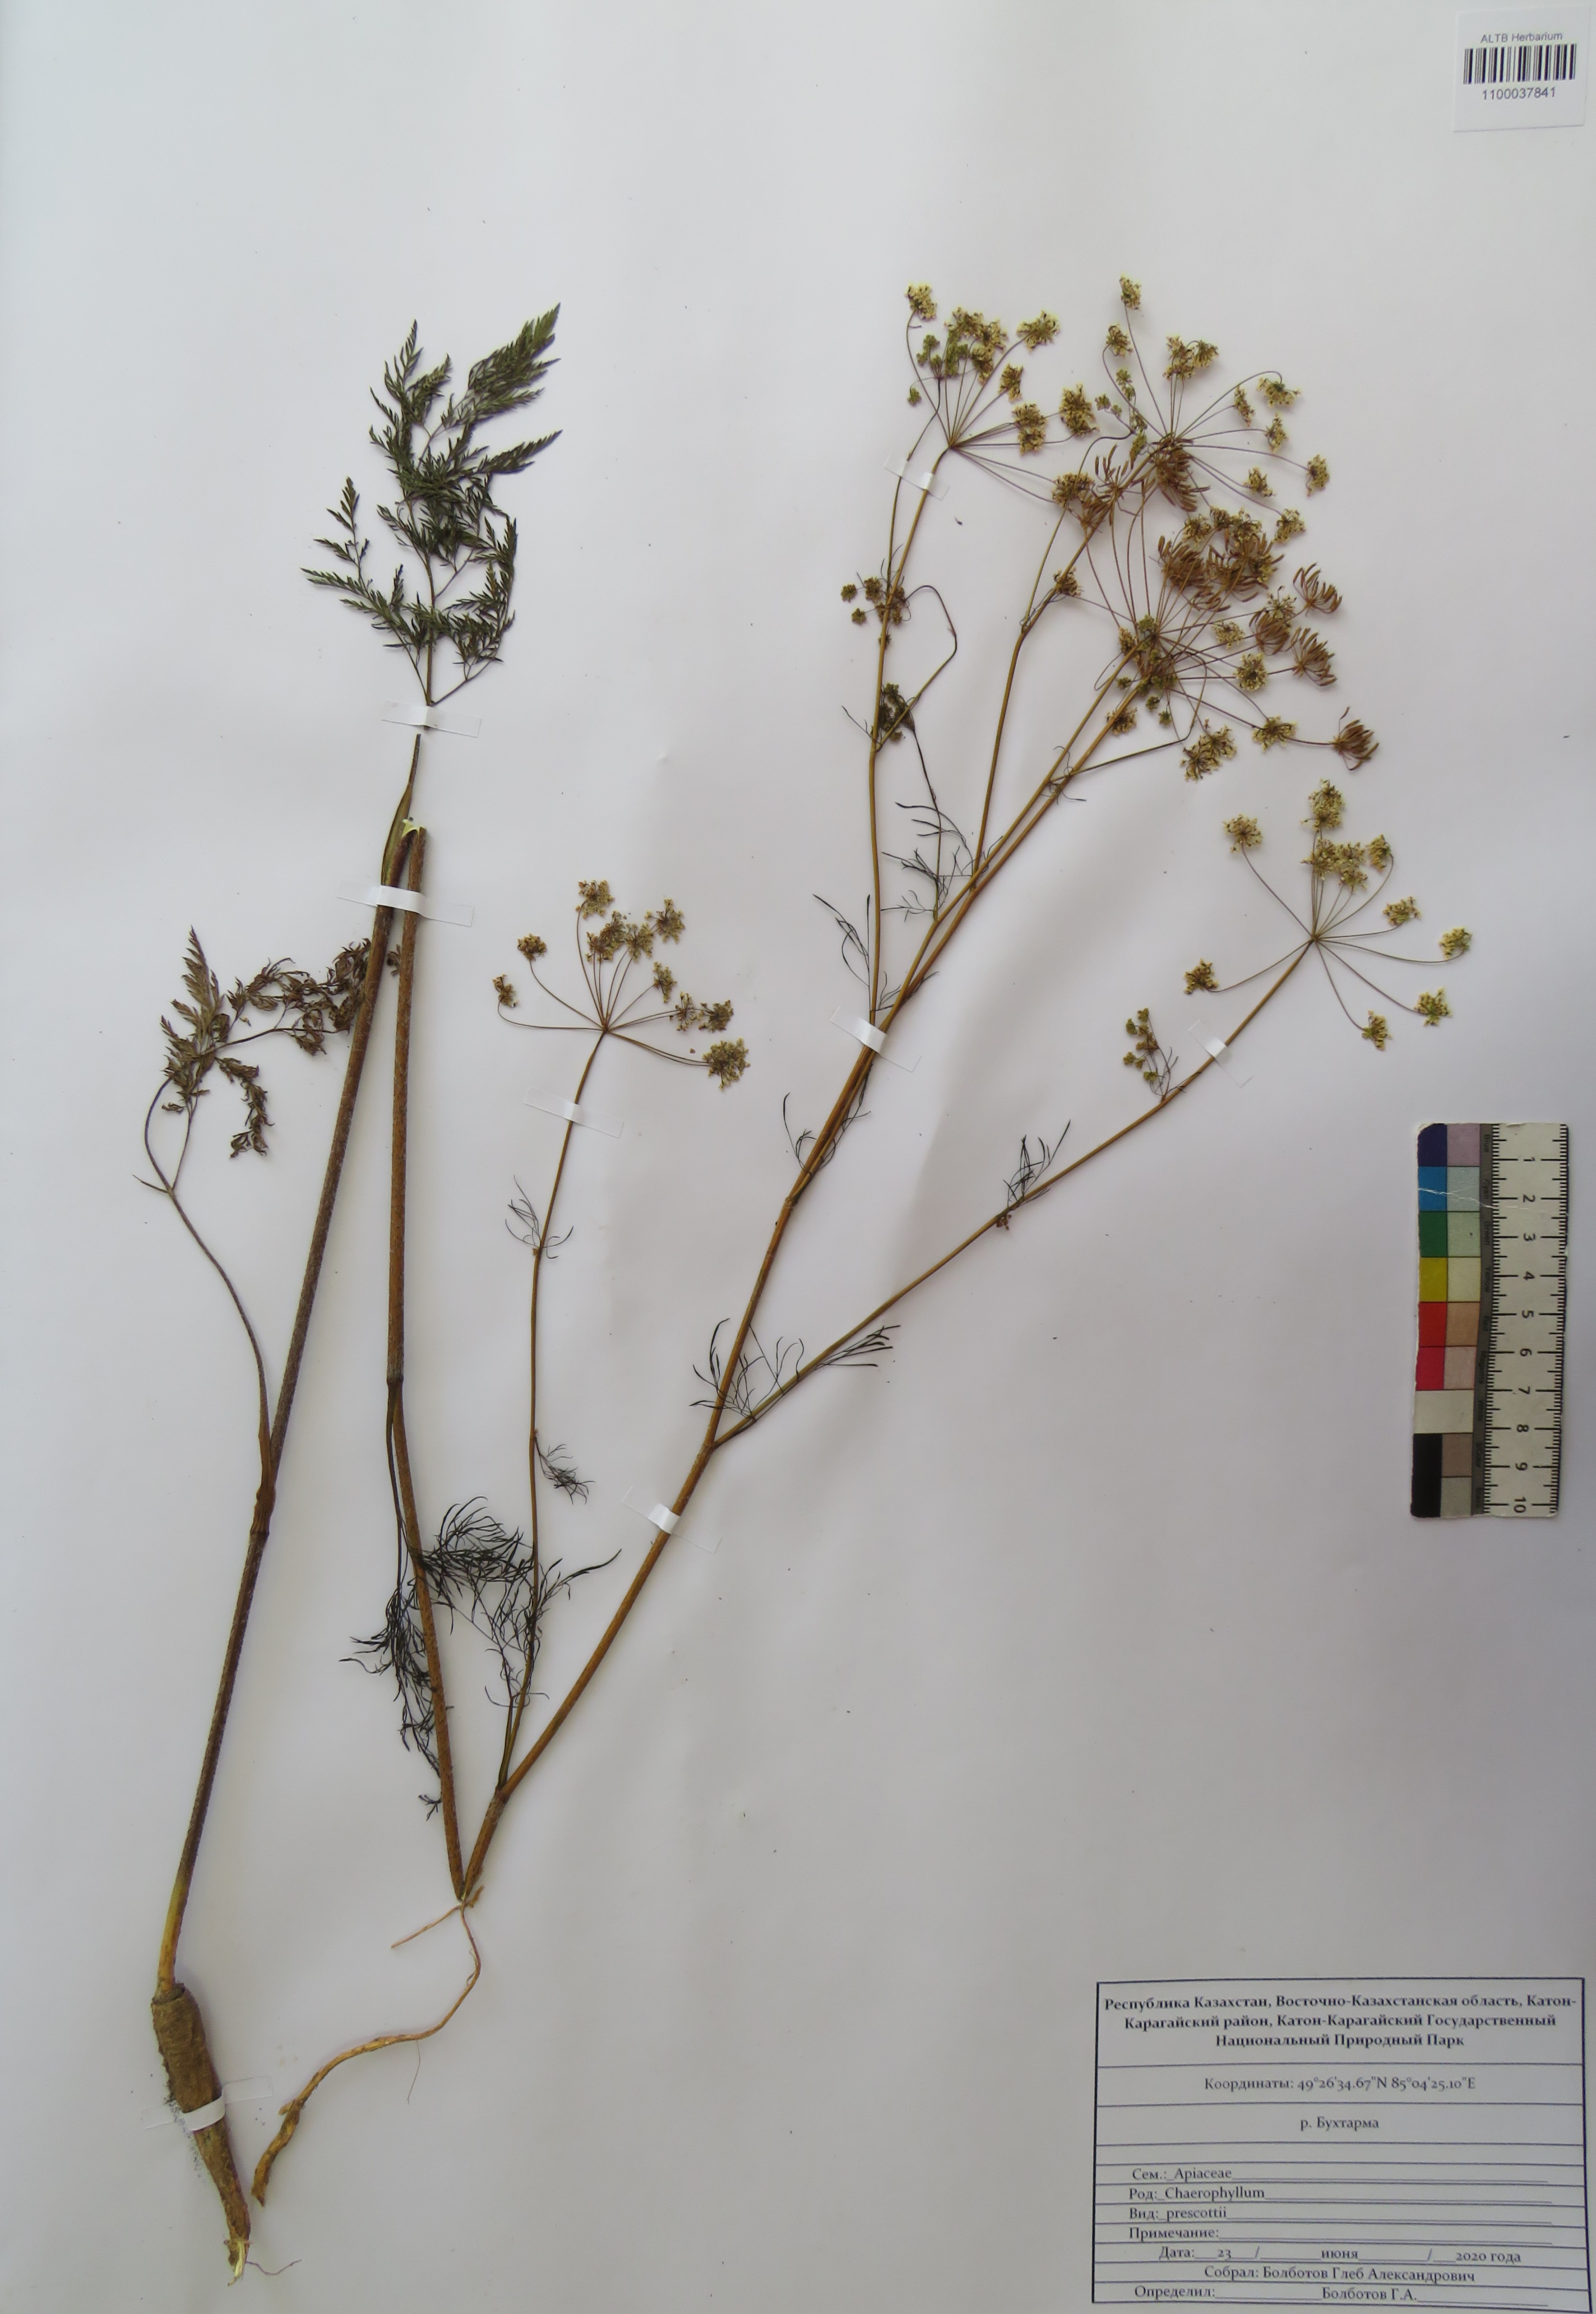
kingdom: Plantae
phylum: Tracheophyta
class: Magnoliopsida
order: Apiales
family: Apiaceae
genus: Chaerophyllum
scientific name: Chaerophyllum prescottii
